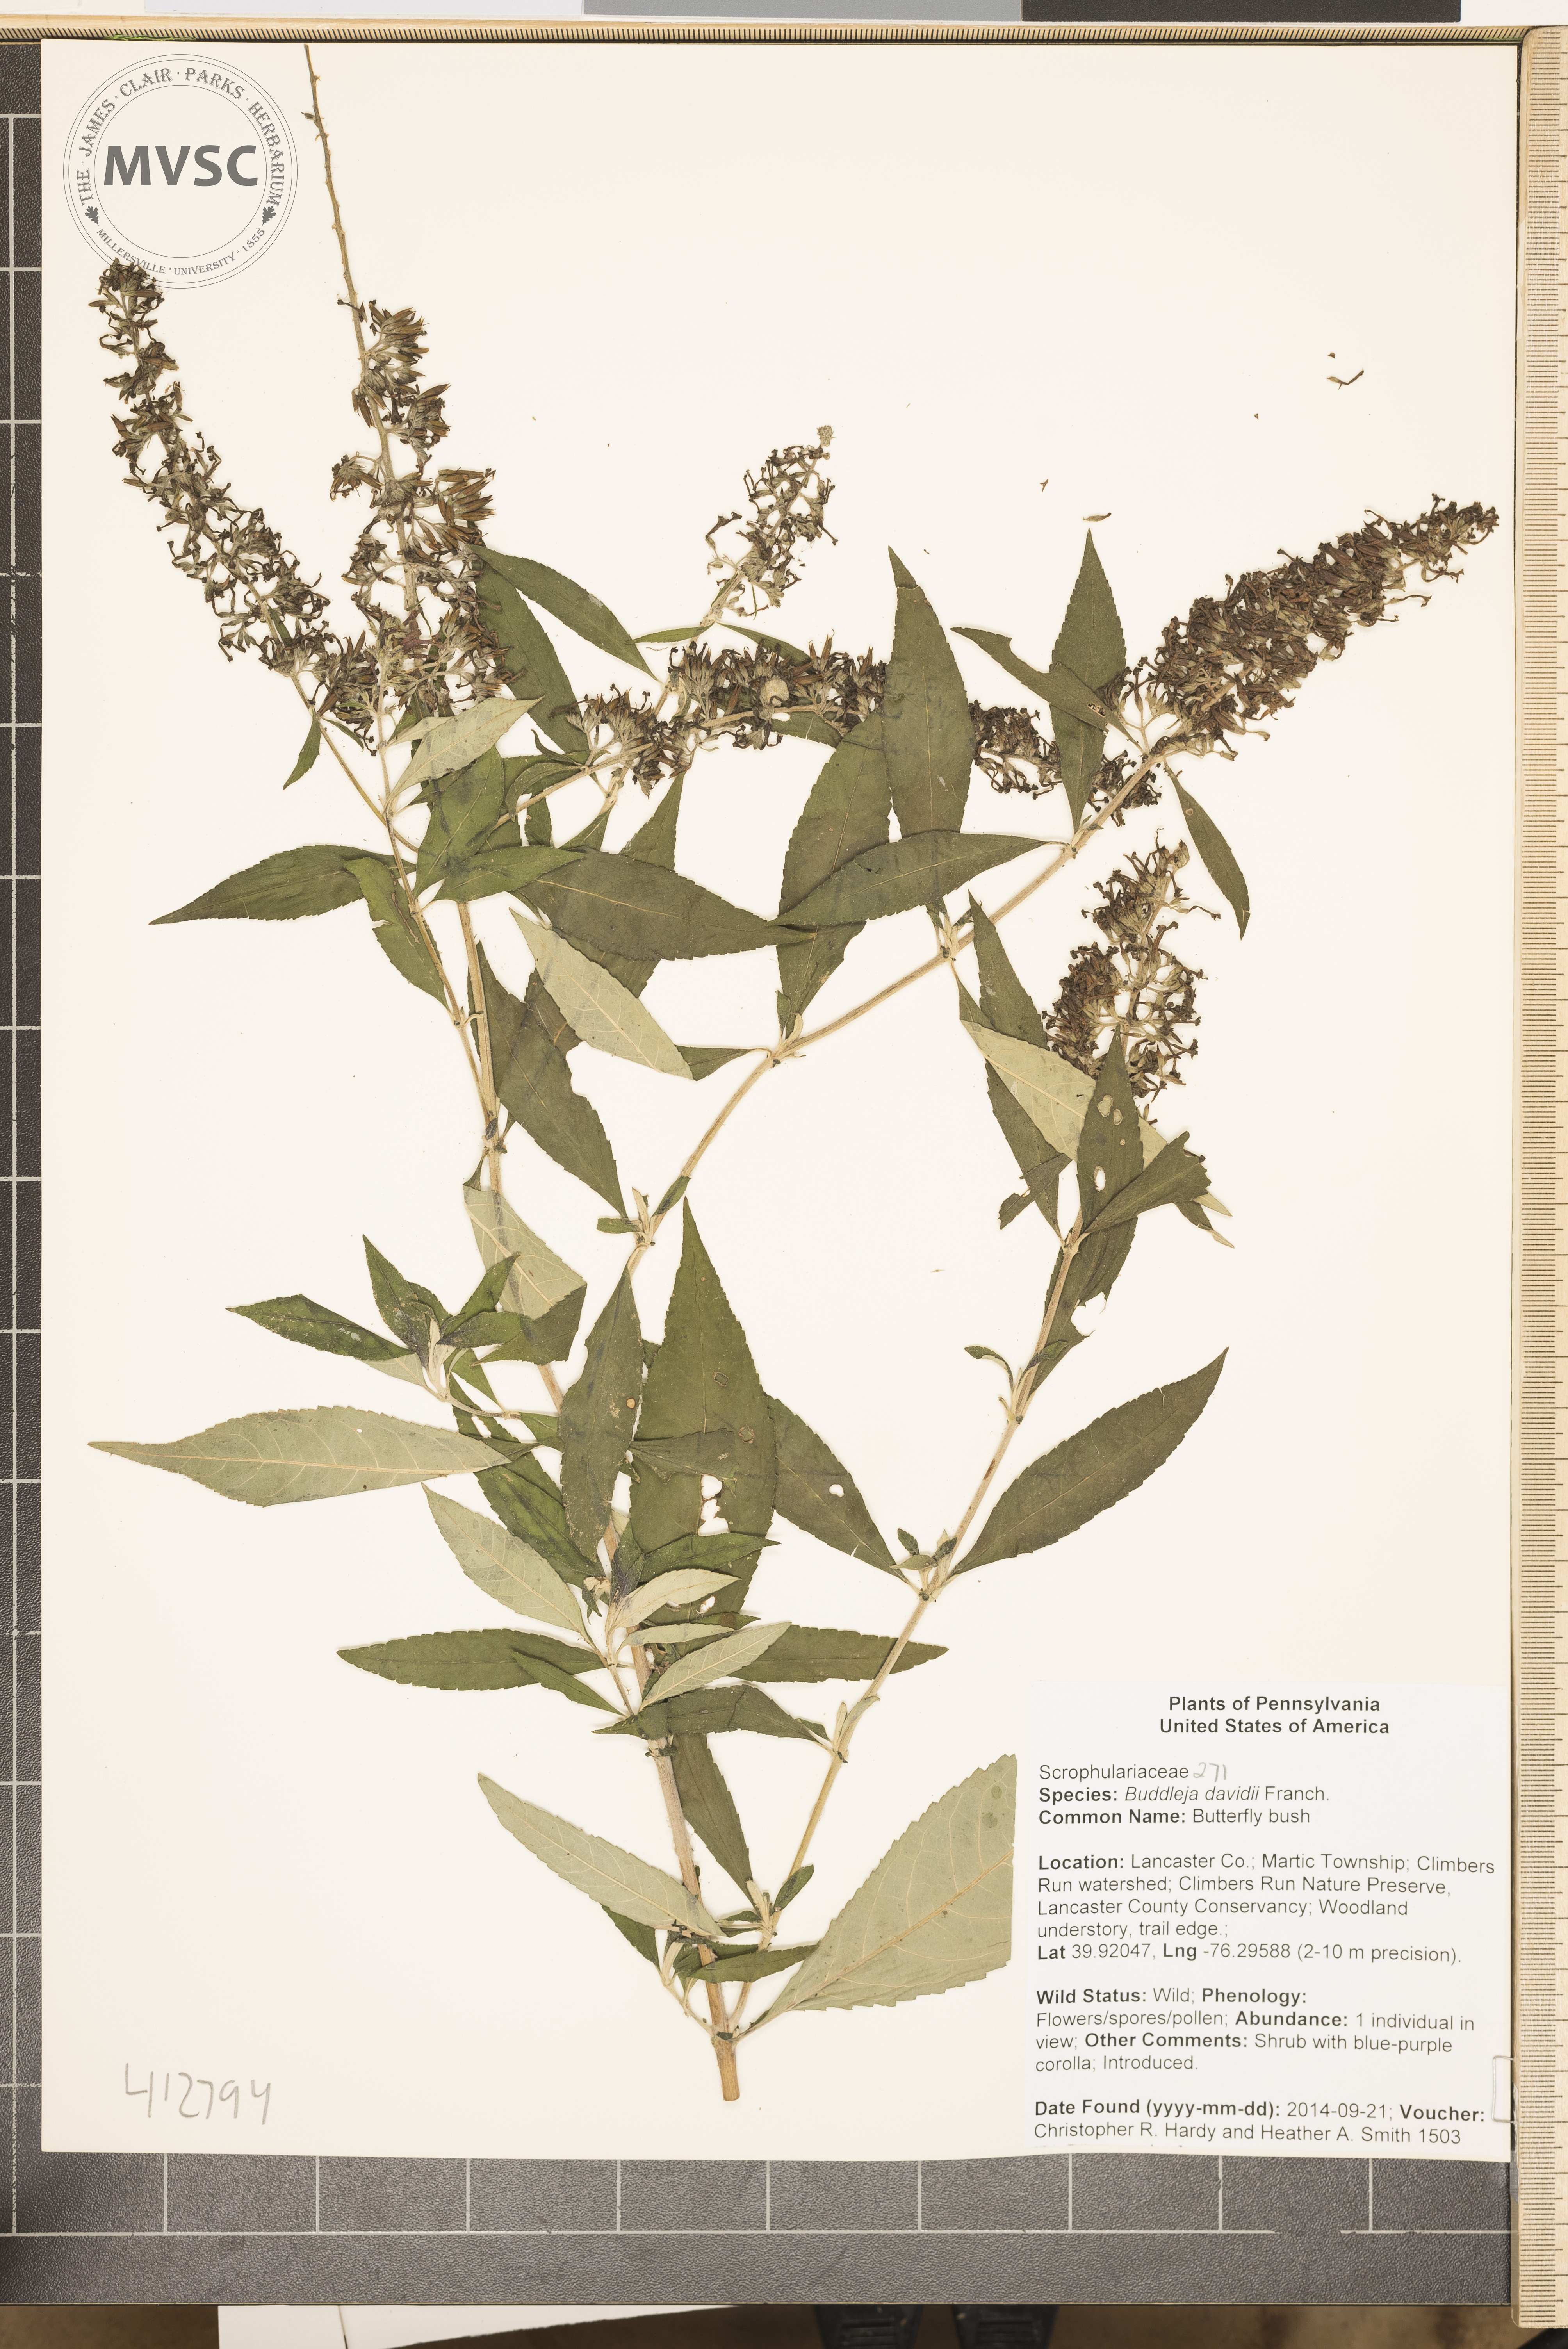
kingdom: Plantae
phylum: Tracheophyta
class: Magnoliopsida
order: Lamiales
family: Scrophulariaceae
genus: Buddleja
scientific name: Buddleja davidii
